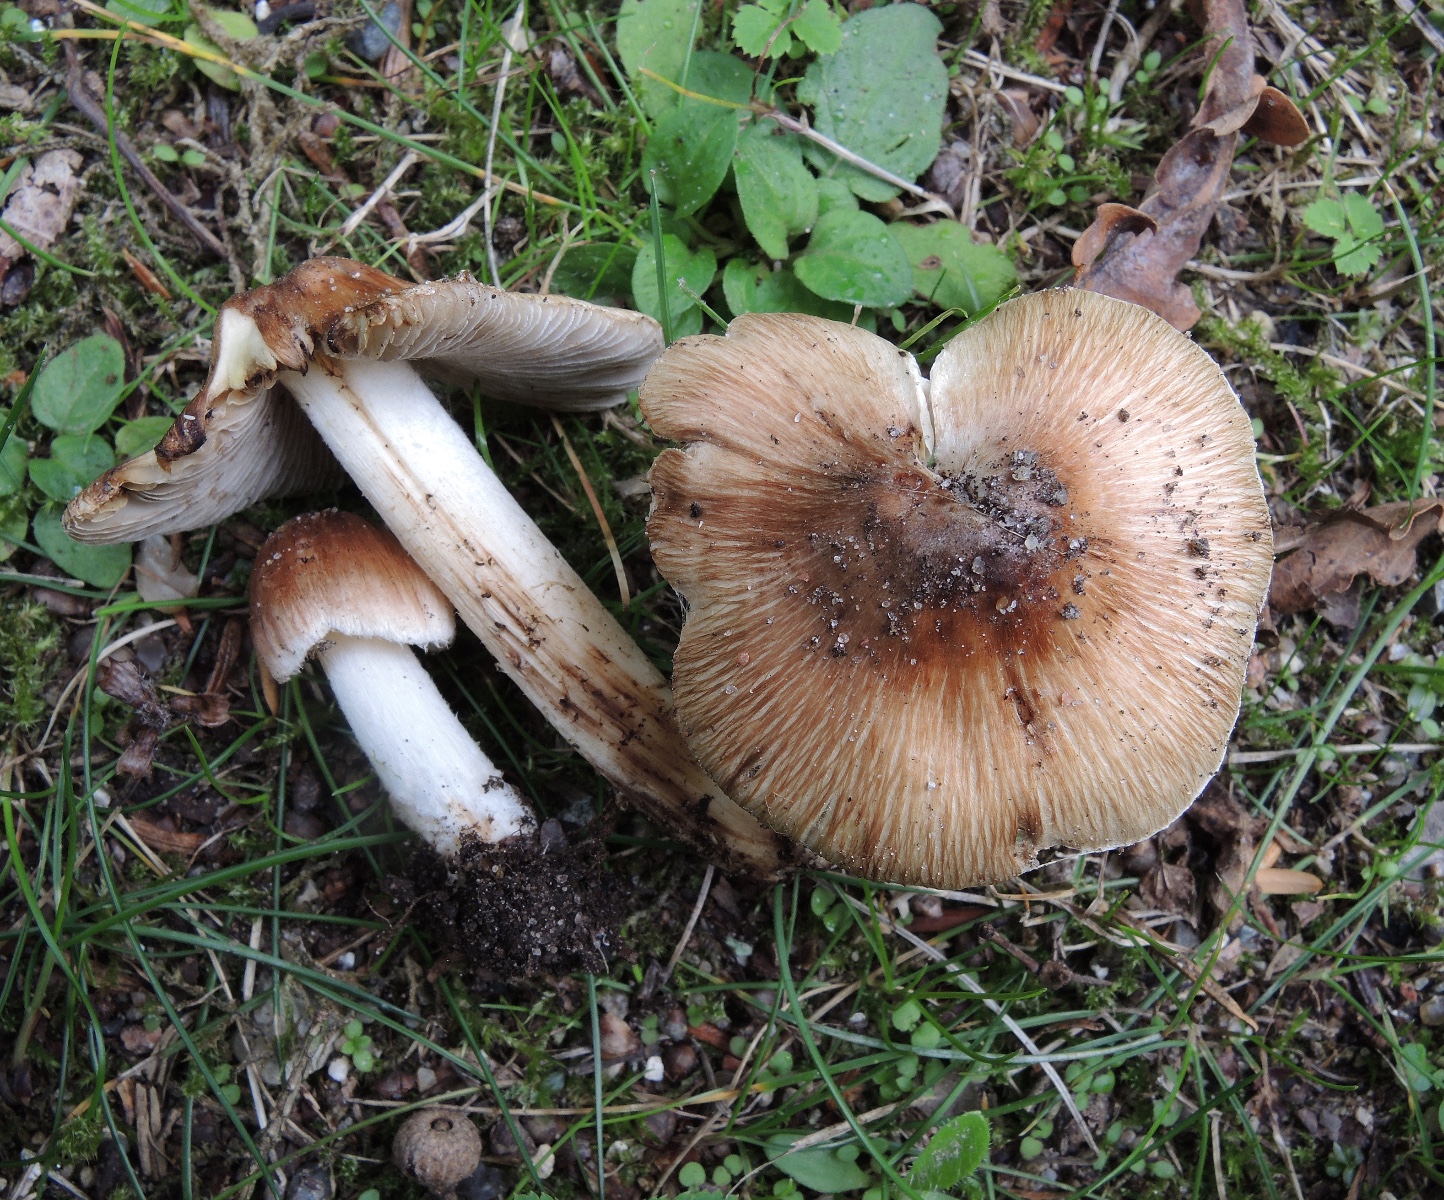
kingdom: Fungi
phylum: Basidiomycota
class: Agaricomycetes
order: Agaricales
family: Inocybaceae
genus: Pseudosperma
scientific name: Pseudosperma
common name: trævlhat
